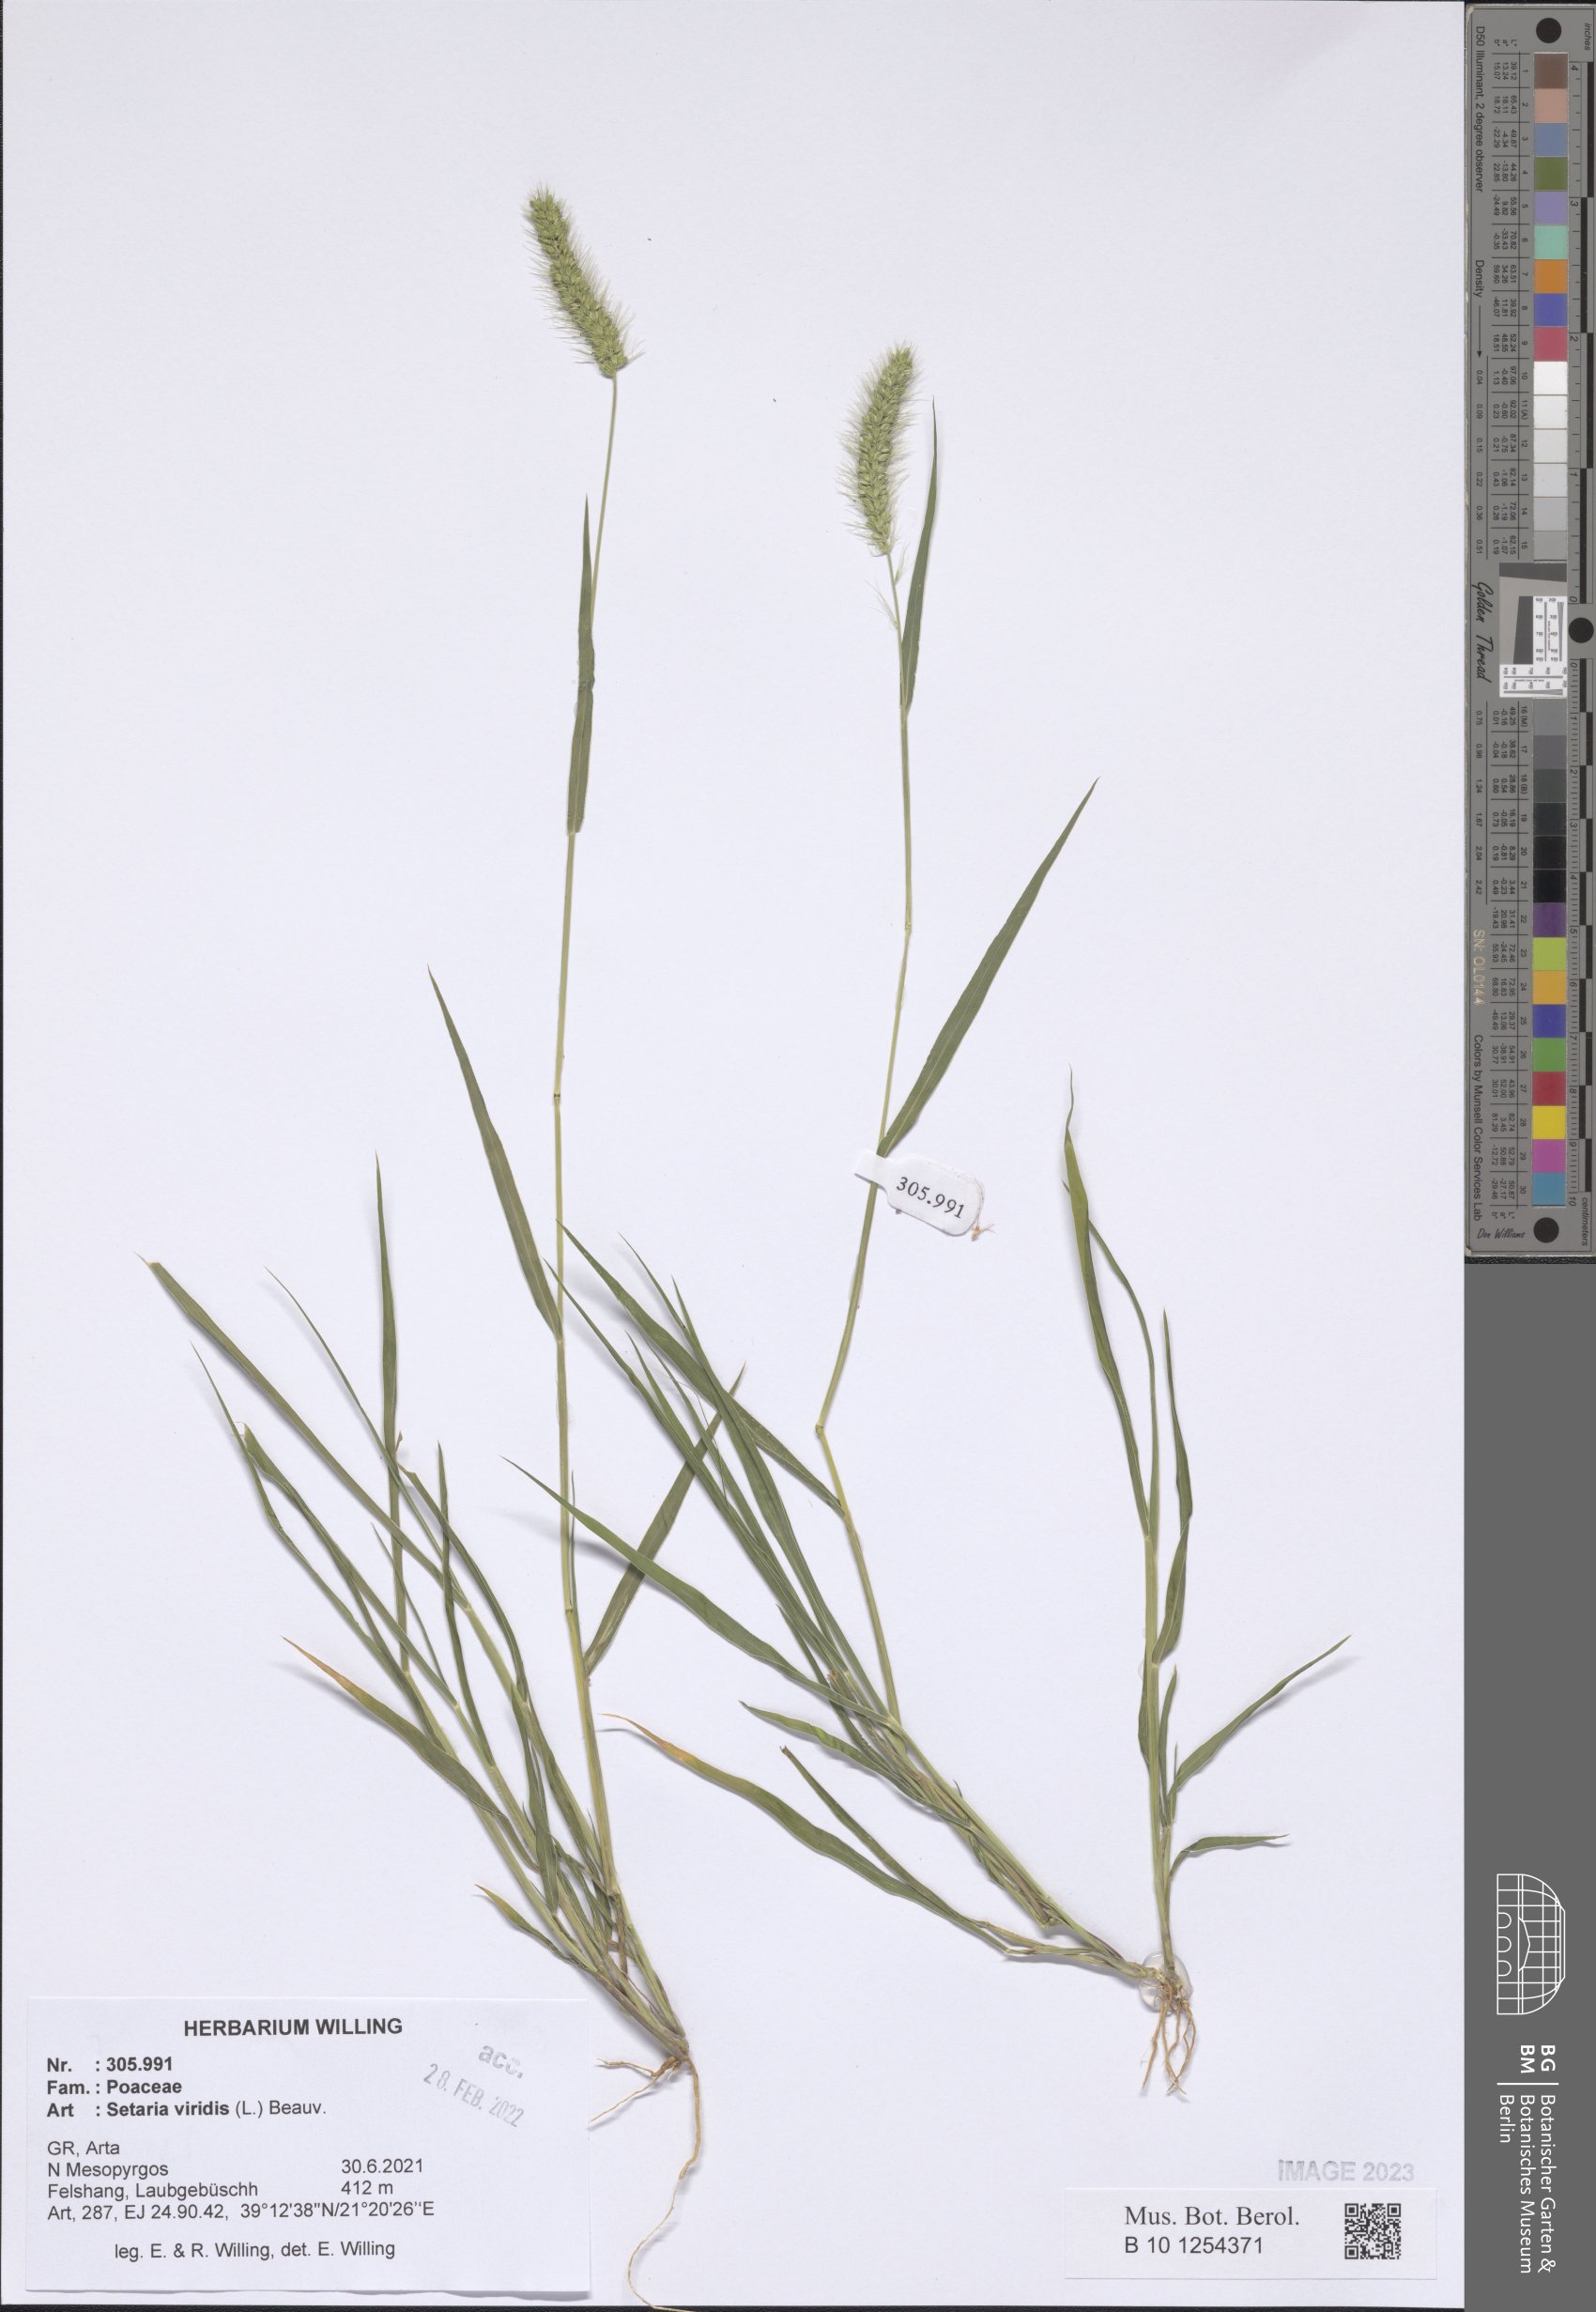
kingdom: Plantae
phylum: Tracheophyta
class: Liliopsida
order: Poales
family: Poaceae
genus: Setaria
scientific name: Setaria viridis
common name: Green bristlegrass
